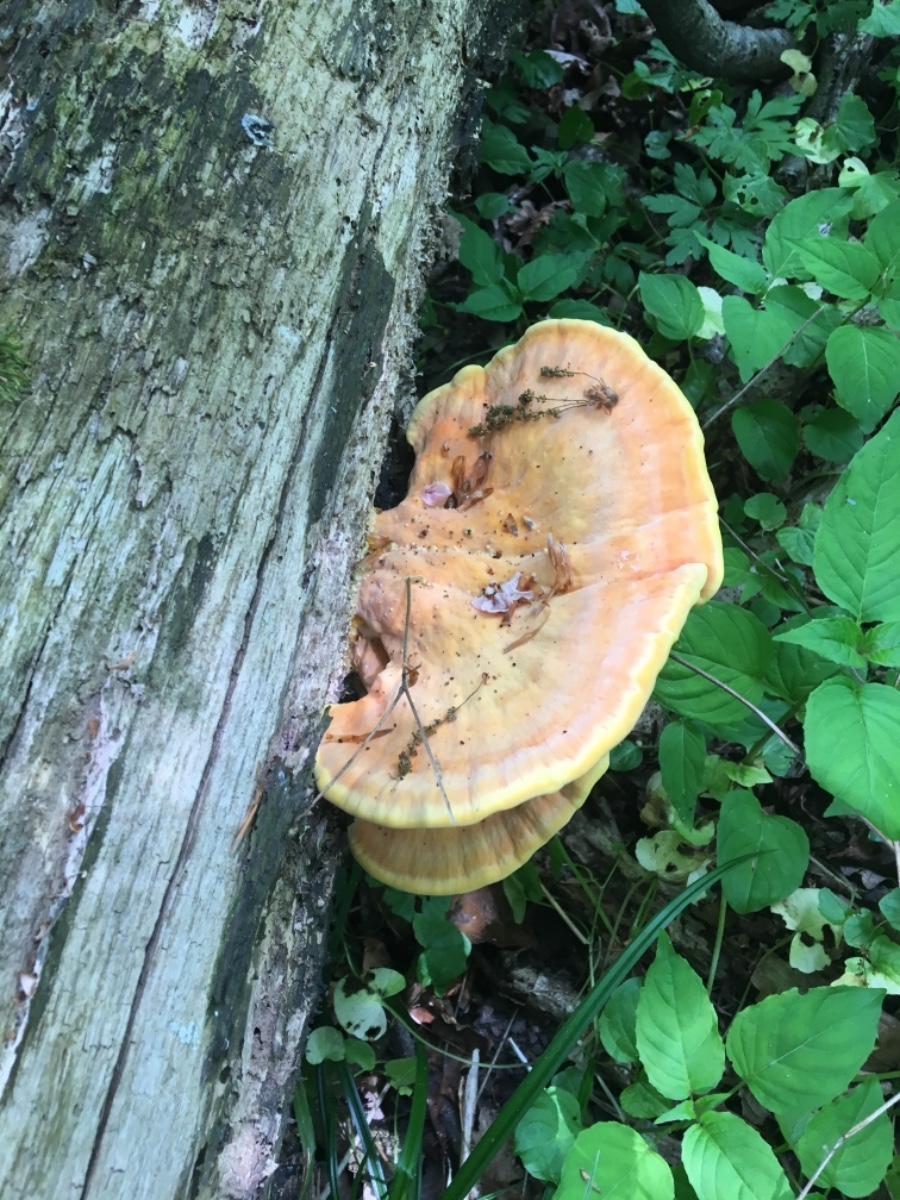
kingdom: Fungi
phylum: Basidiomycota
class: Agaricomycetes
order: Polyporales
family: Laetiporaceae
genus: Laetiporus
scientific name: Laetiporus sulphureus
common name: svovlporesvamp
